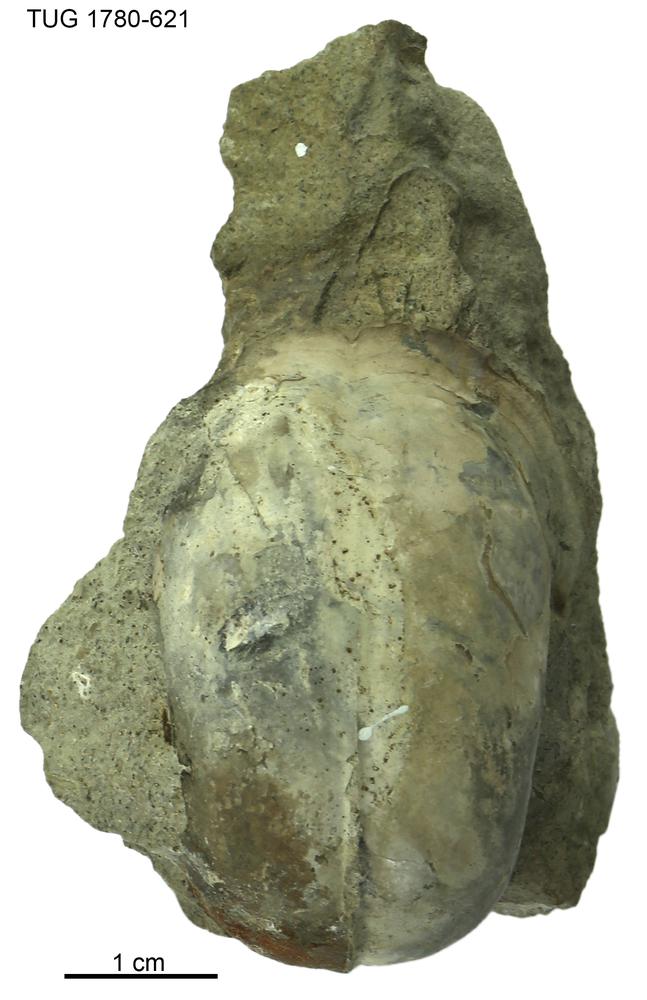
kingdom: Animalia
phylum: Mollusca
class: Gastropoda
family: Bucaniidae
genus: Salpingostoma
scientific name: Salpingostoma locator
